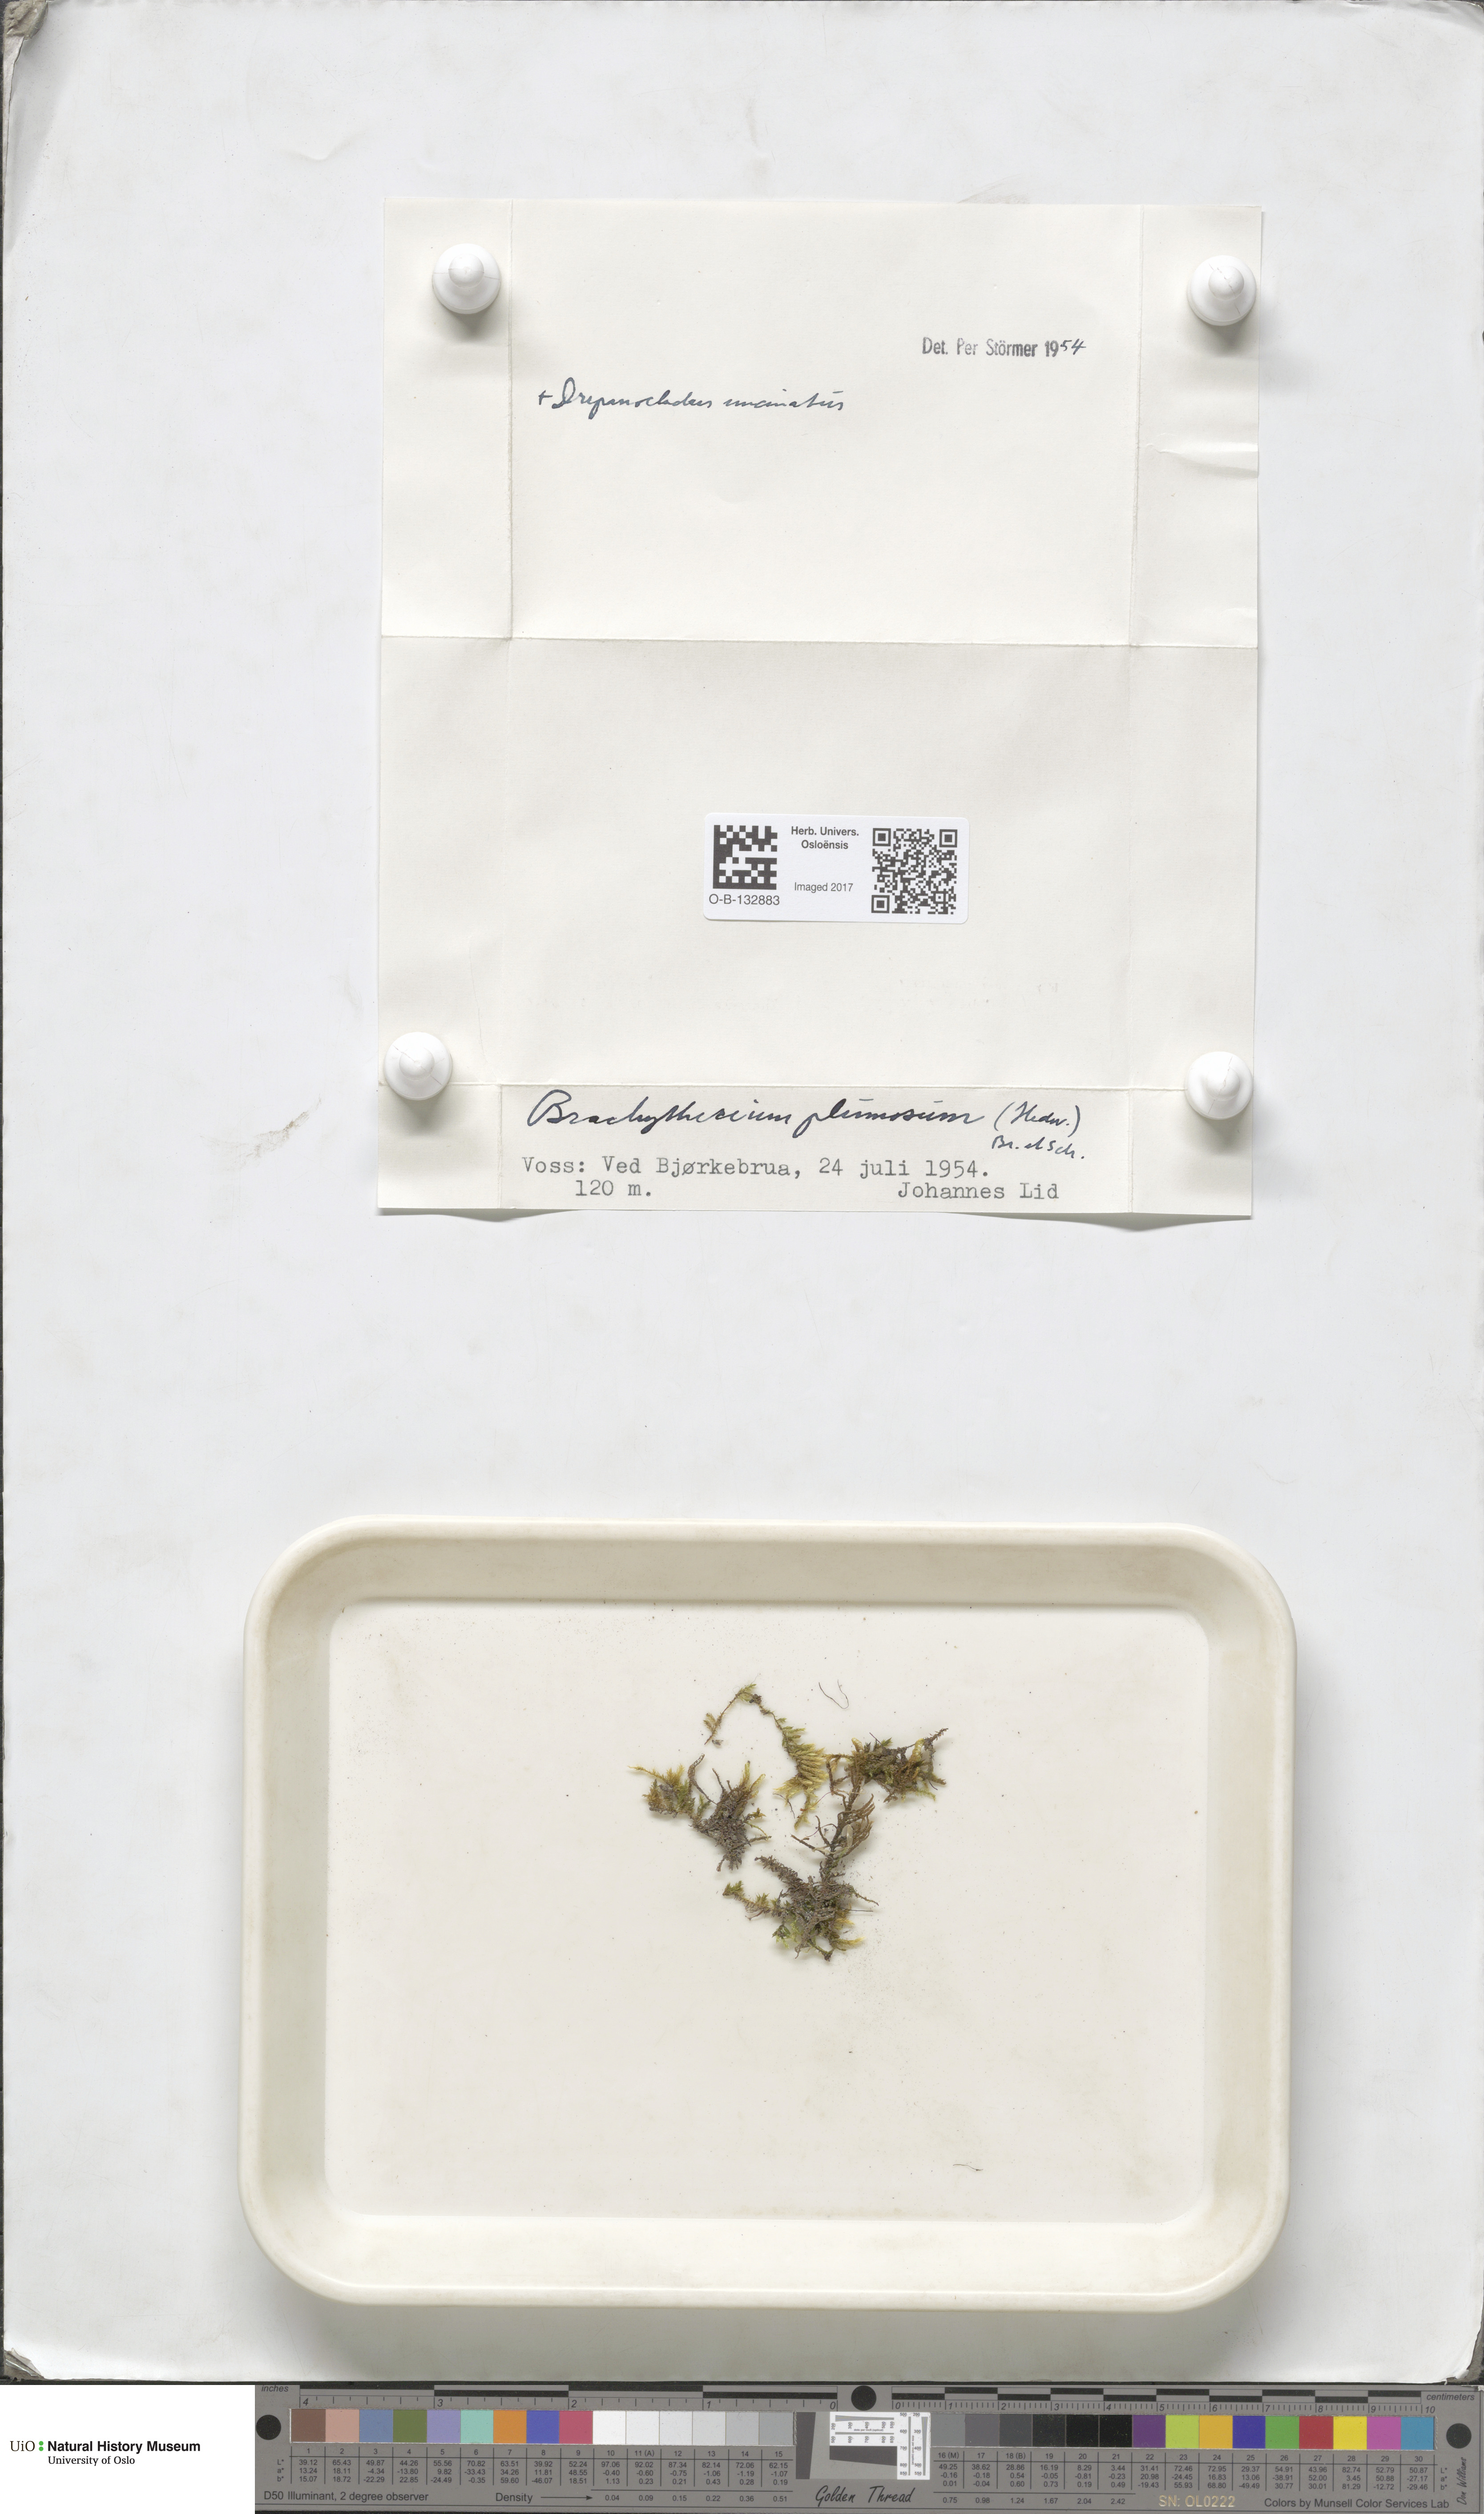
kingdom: Plantae
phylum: Bryophyta
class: Bryopsida
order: Hypnales
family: Brachytheciaceae
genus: Sciuro-hypnum
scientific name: Sciuro-hypnum plumosum
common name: Rusty feather-moss
